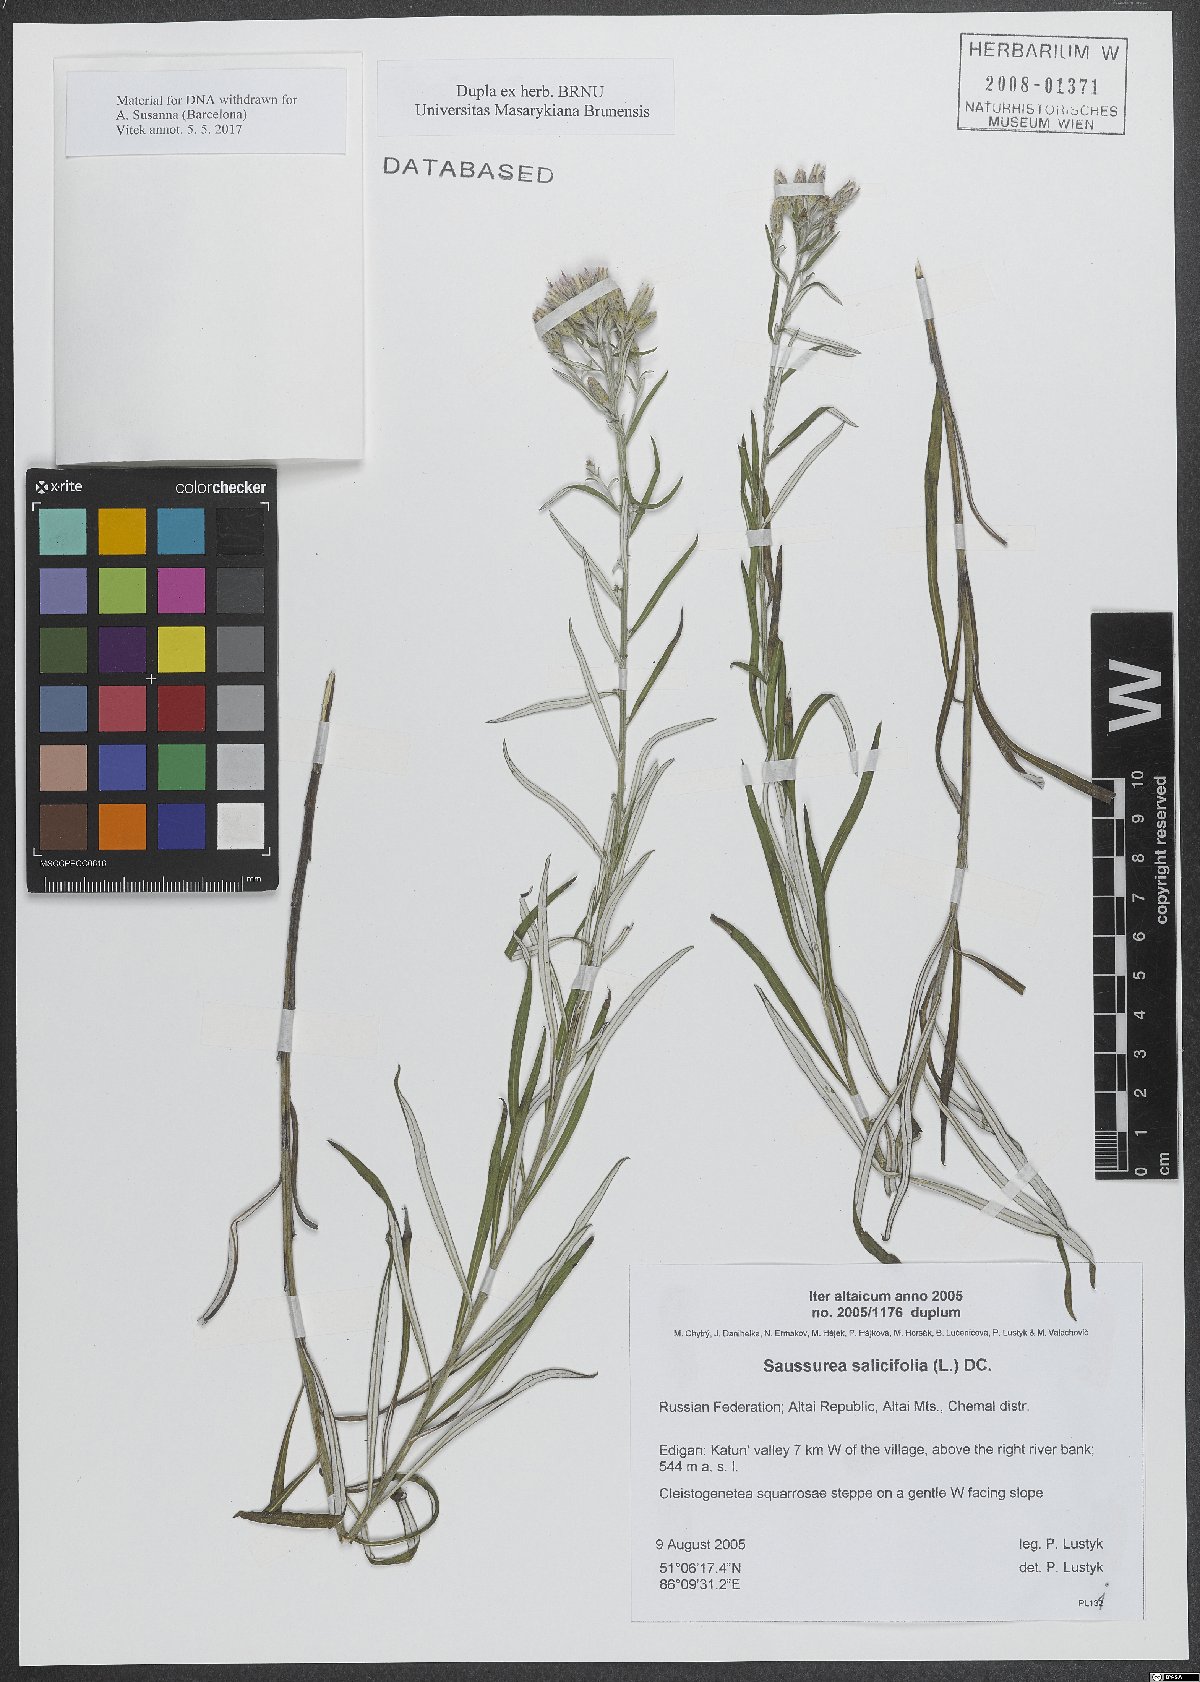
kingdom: Plantae
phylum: Tracheophyta
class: Magnoliopsida
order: Asterales
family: Asteraceae
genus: Saussurea
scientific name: Saussurea salicifolia
